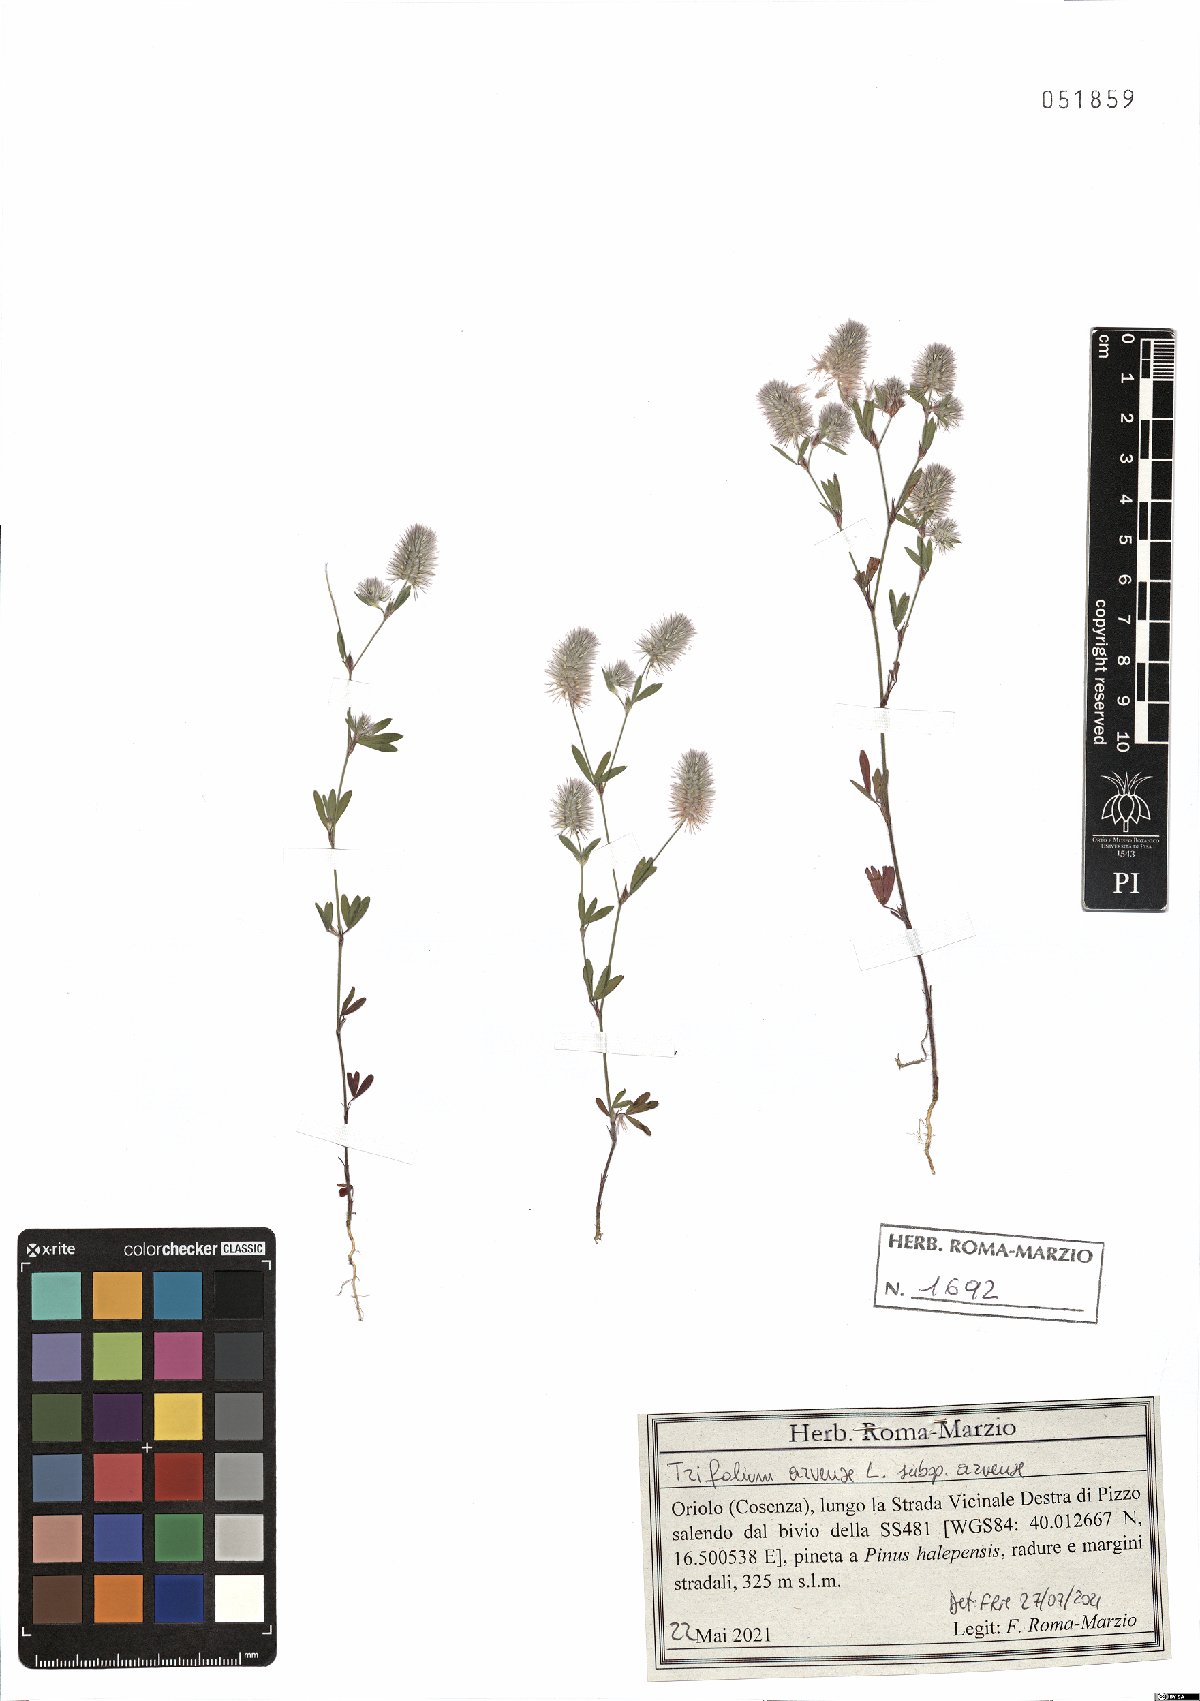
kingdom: Plantae
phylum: Tracheophyta
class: Magnoliopsida
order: Fabales
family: Fabaceae
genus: Trifolium
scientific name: Trifolium arvense
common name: Hare's-foot clover
